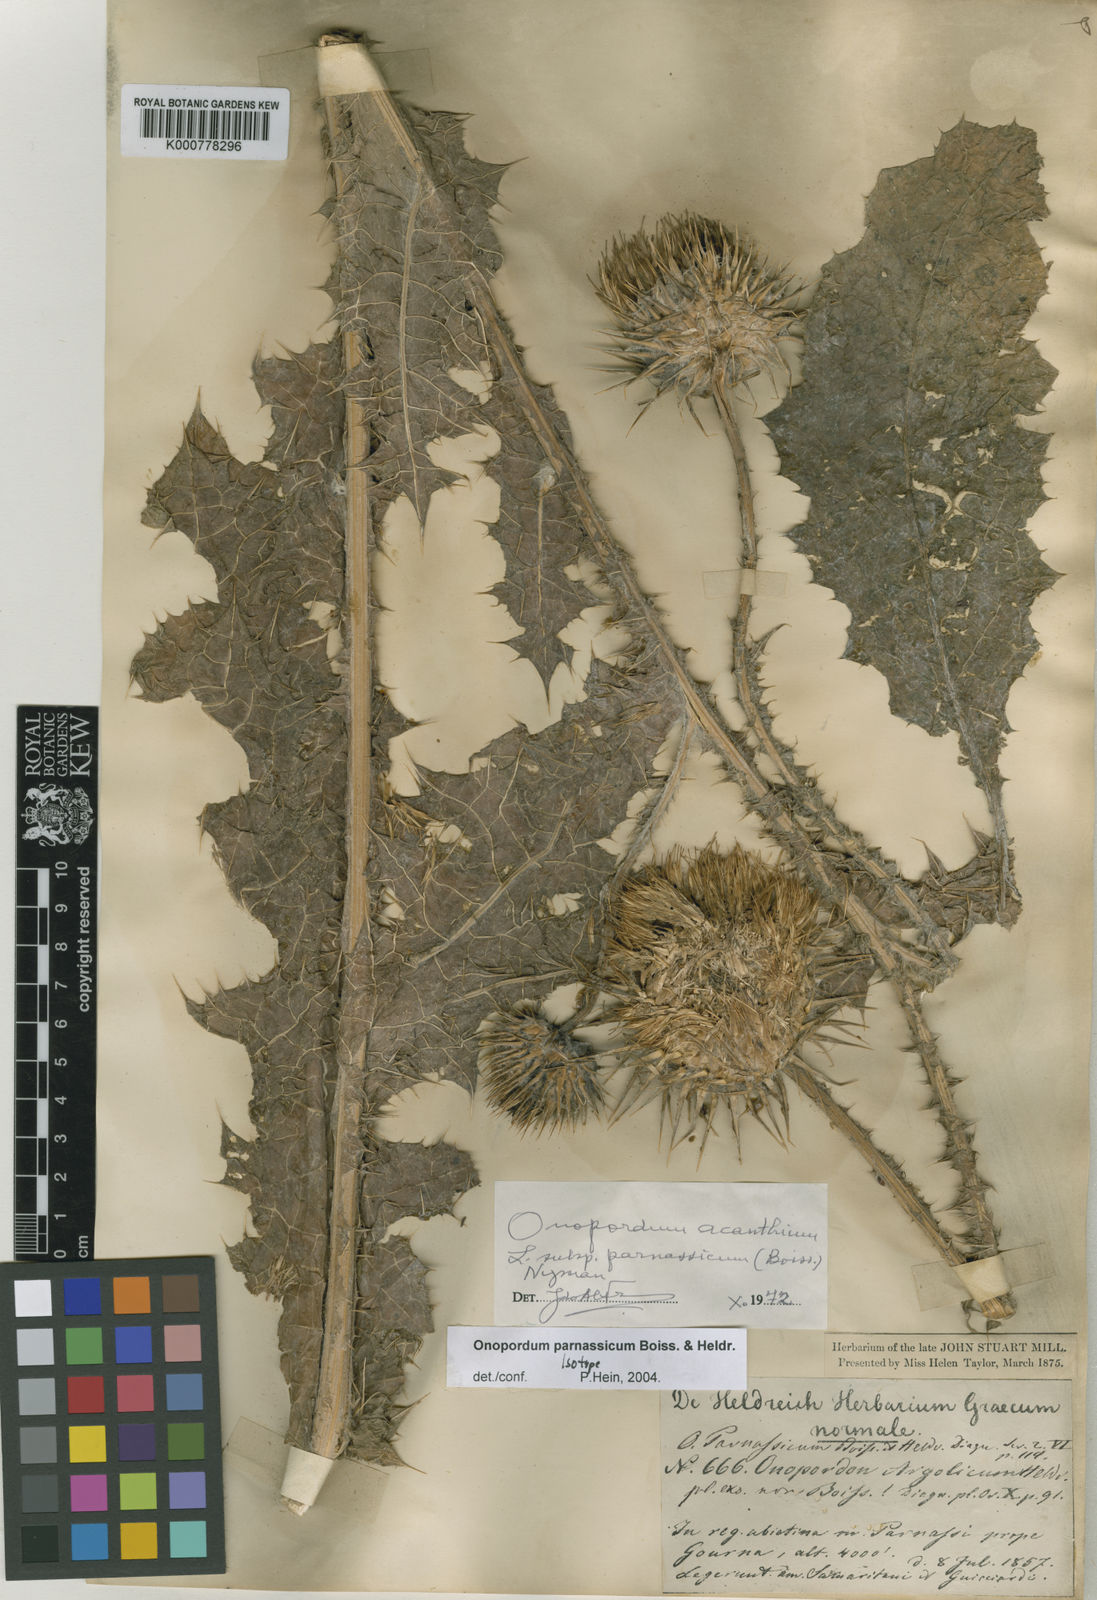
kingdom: Plantae
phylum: Tracheophyta
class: Magnoliopsida
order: Asterales
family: Asteraceae
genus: Onopordum
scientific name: Onopordum acanthium
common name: Scotch thistle
